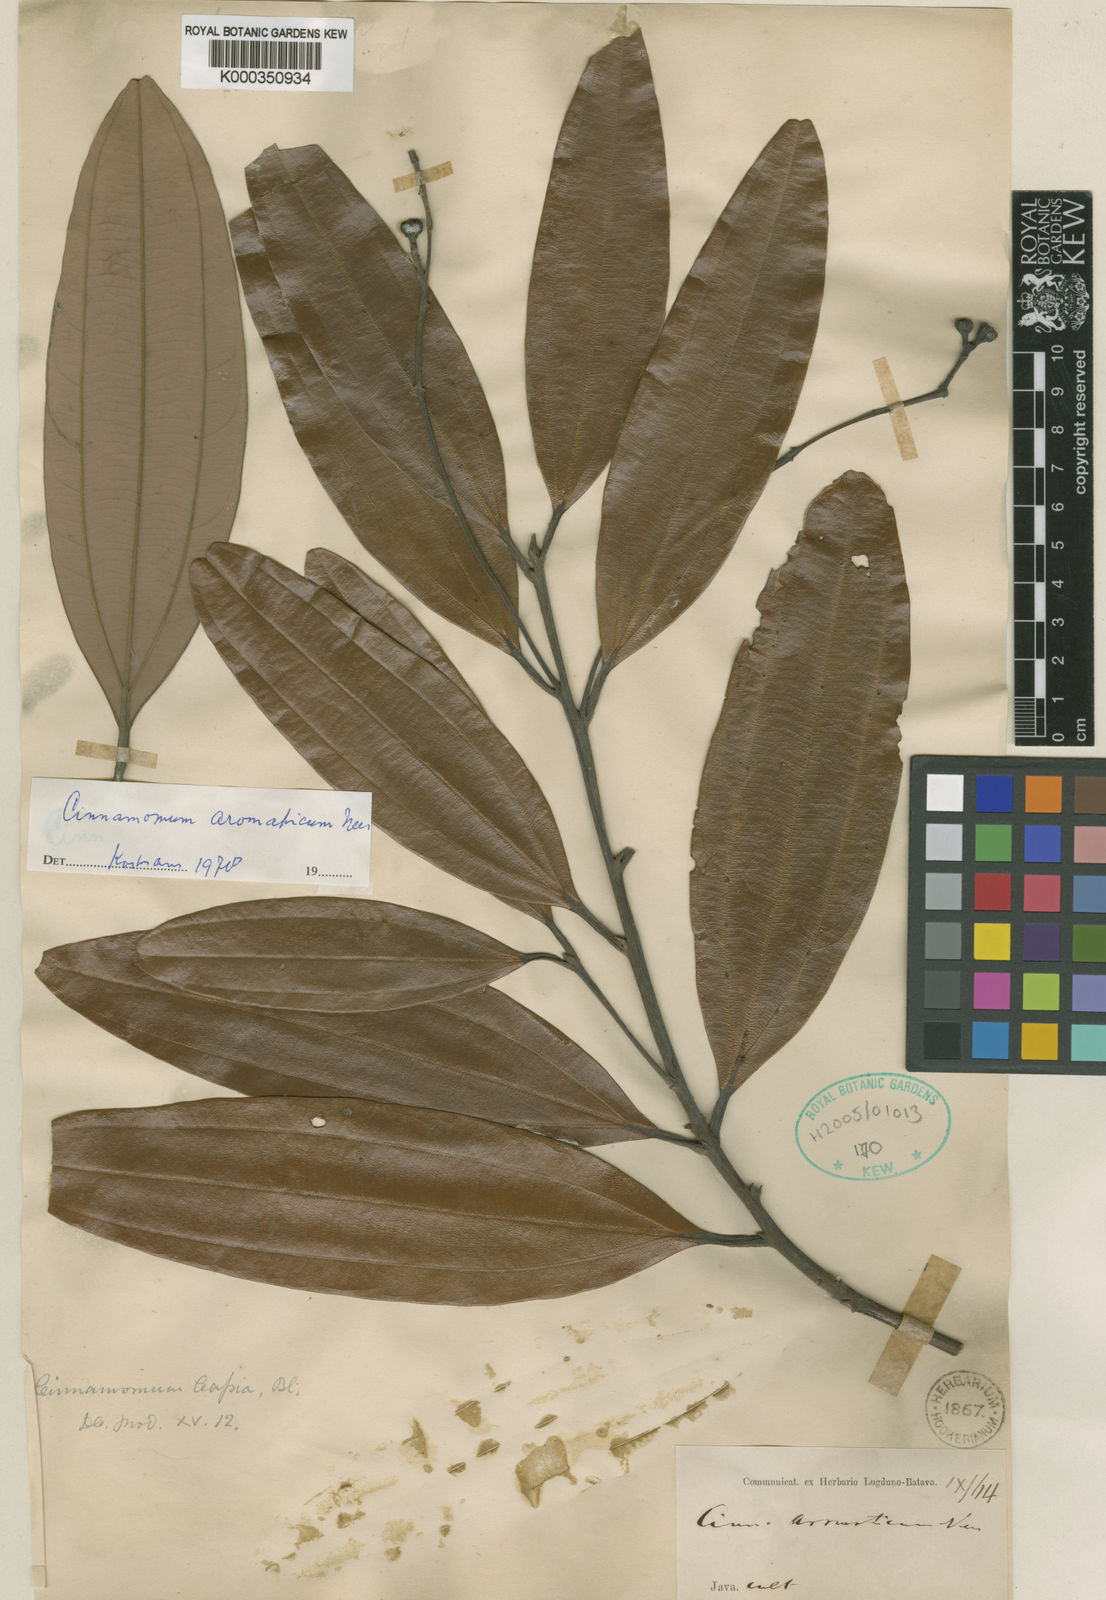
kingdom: Plantae
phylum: Tracheophyta
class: Magnoliopsida
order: Laurales
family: Lauraceae
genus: Cinnamomum
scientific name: Cinnamomum aromaticum
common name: Chinese cinnamon
